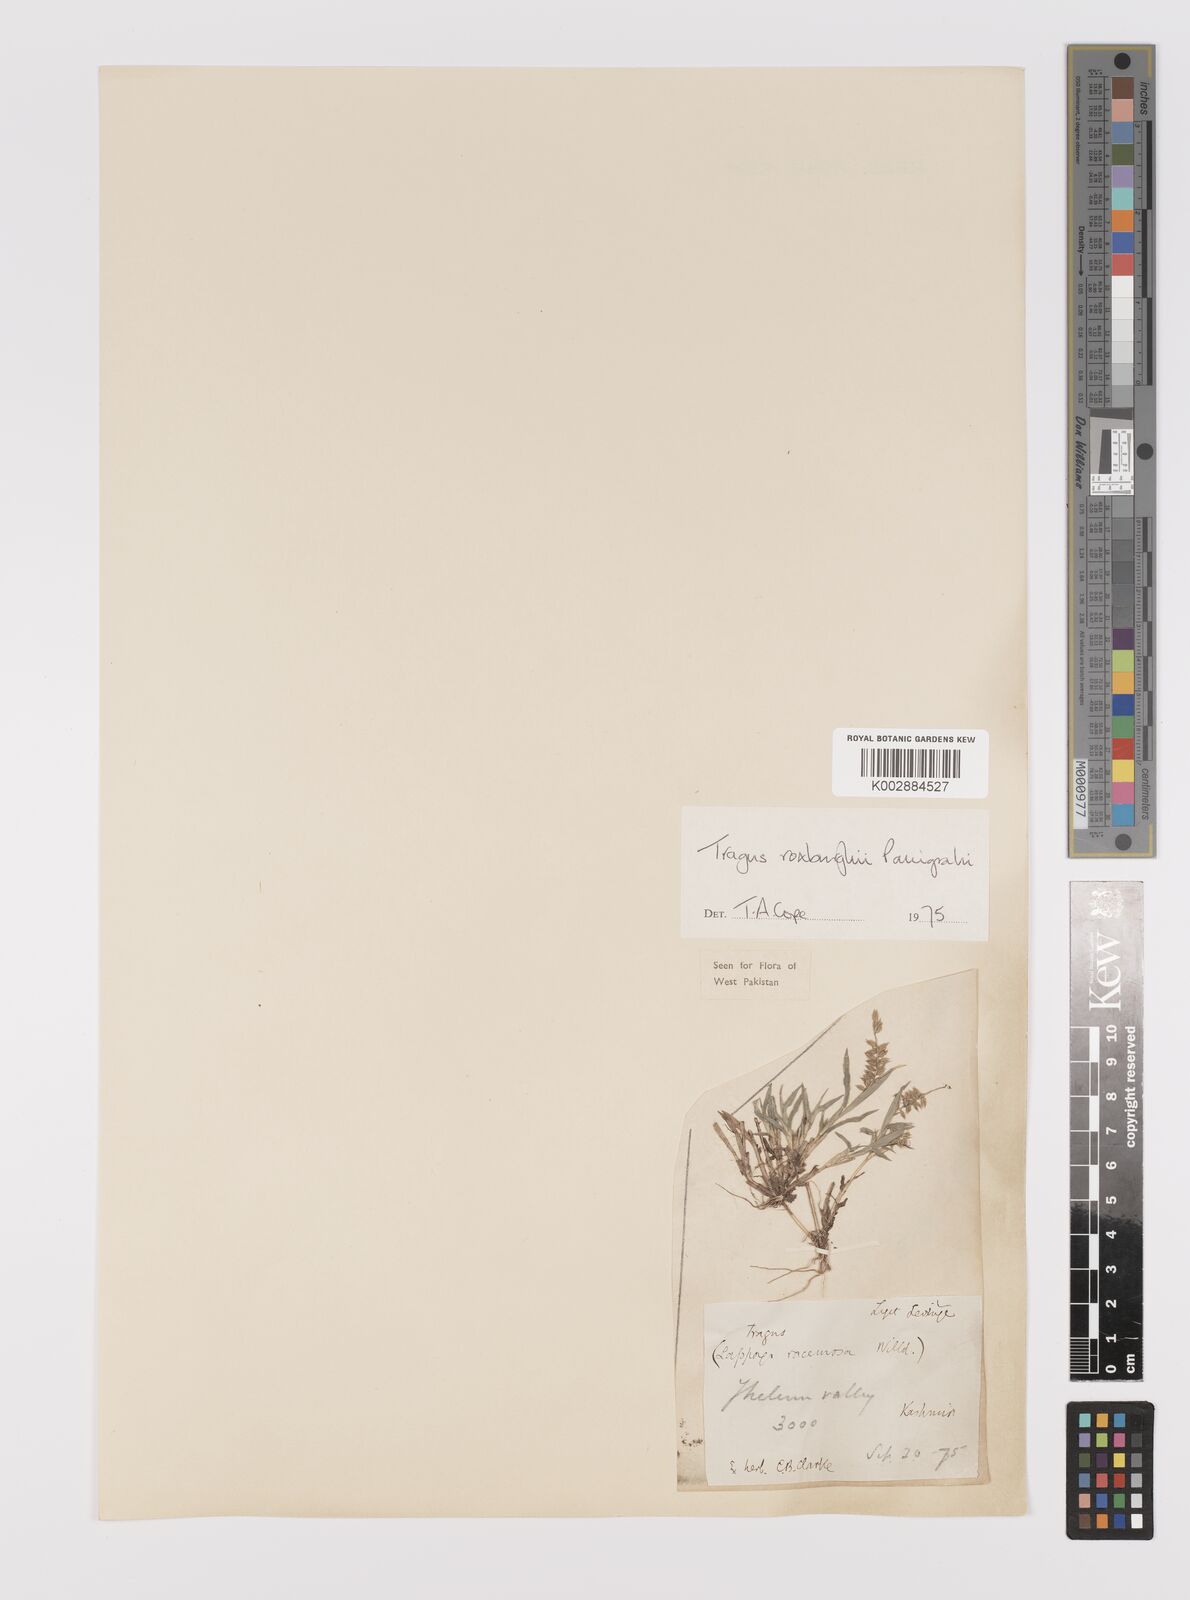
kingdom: Plantae
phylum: Tracheophyta
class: Liliopsida
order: Poales
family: Poaceae
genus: Tragus
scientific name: Tragus mongolorum
